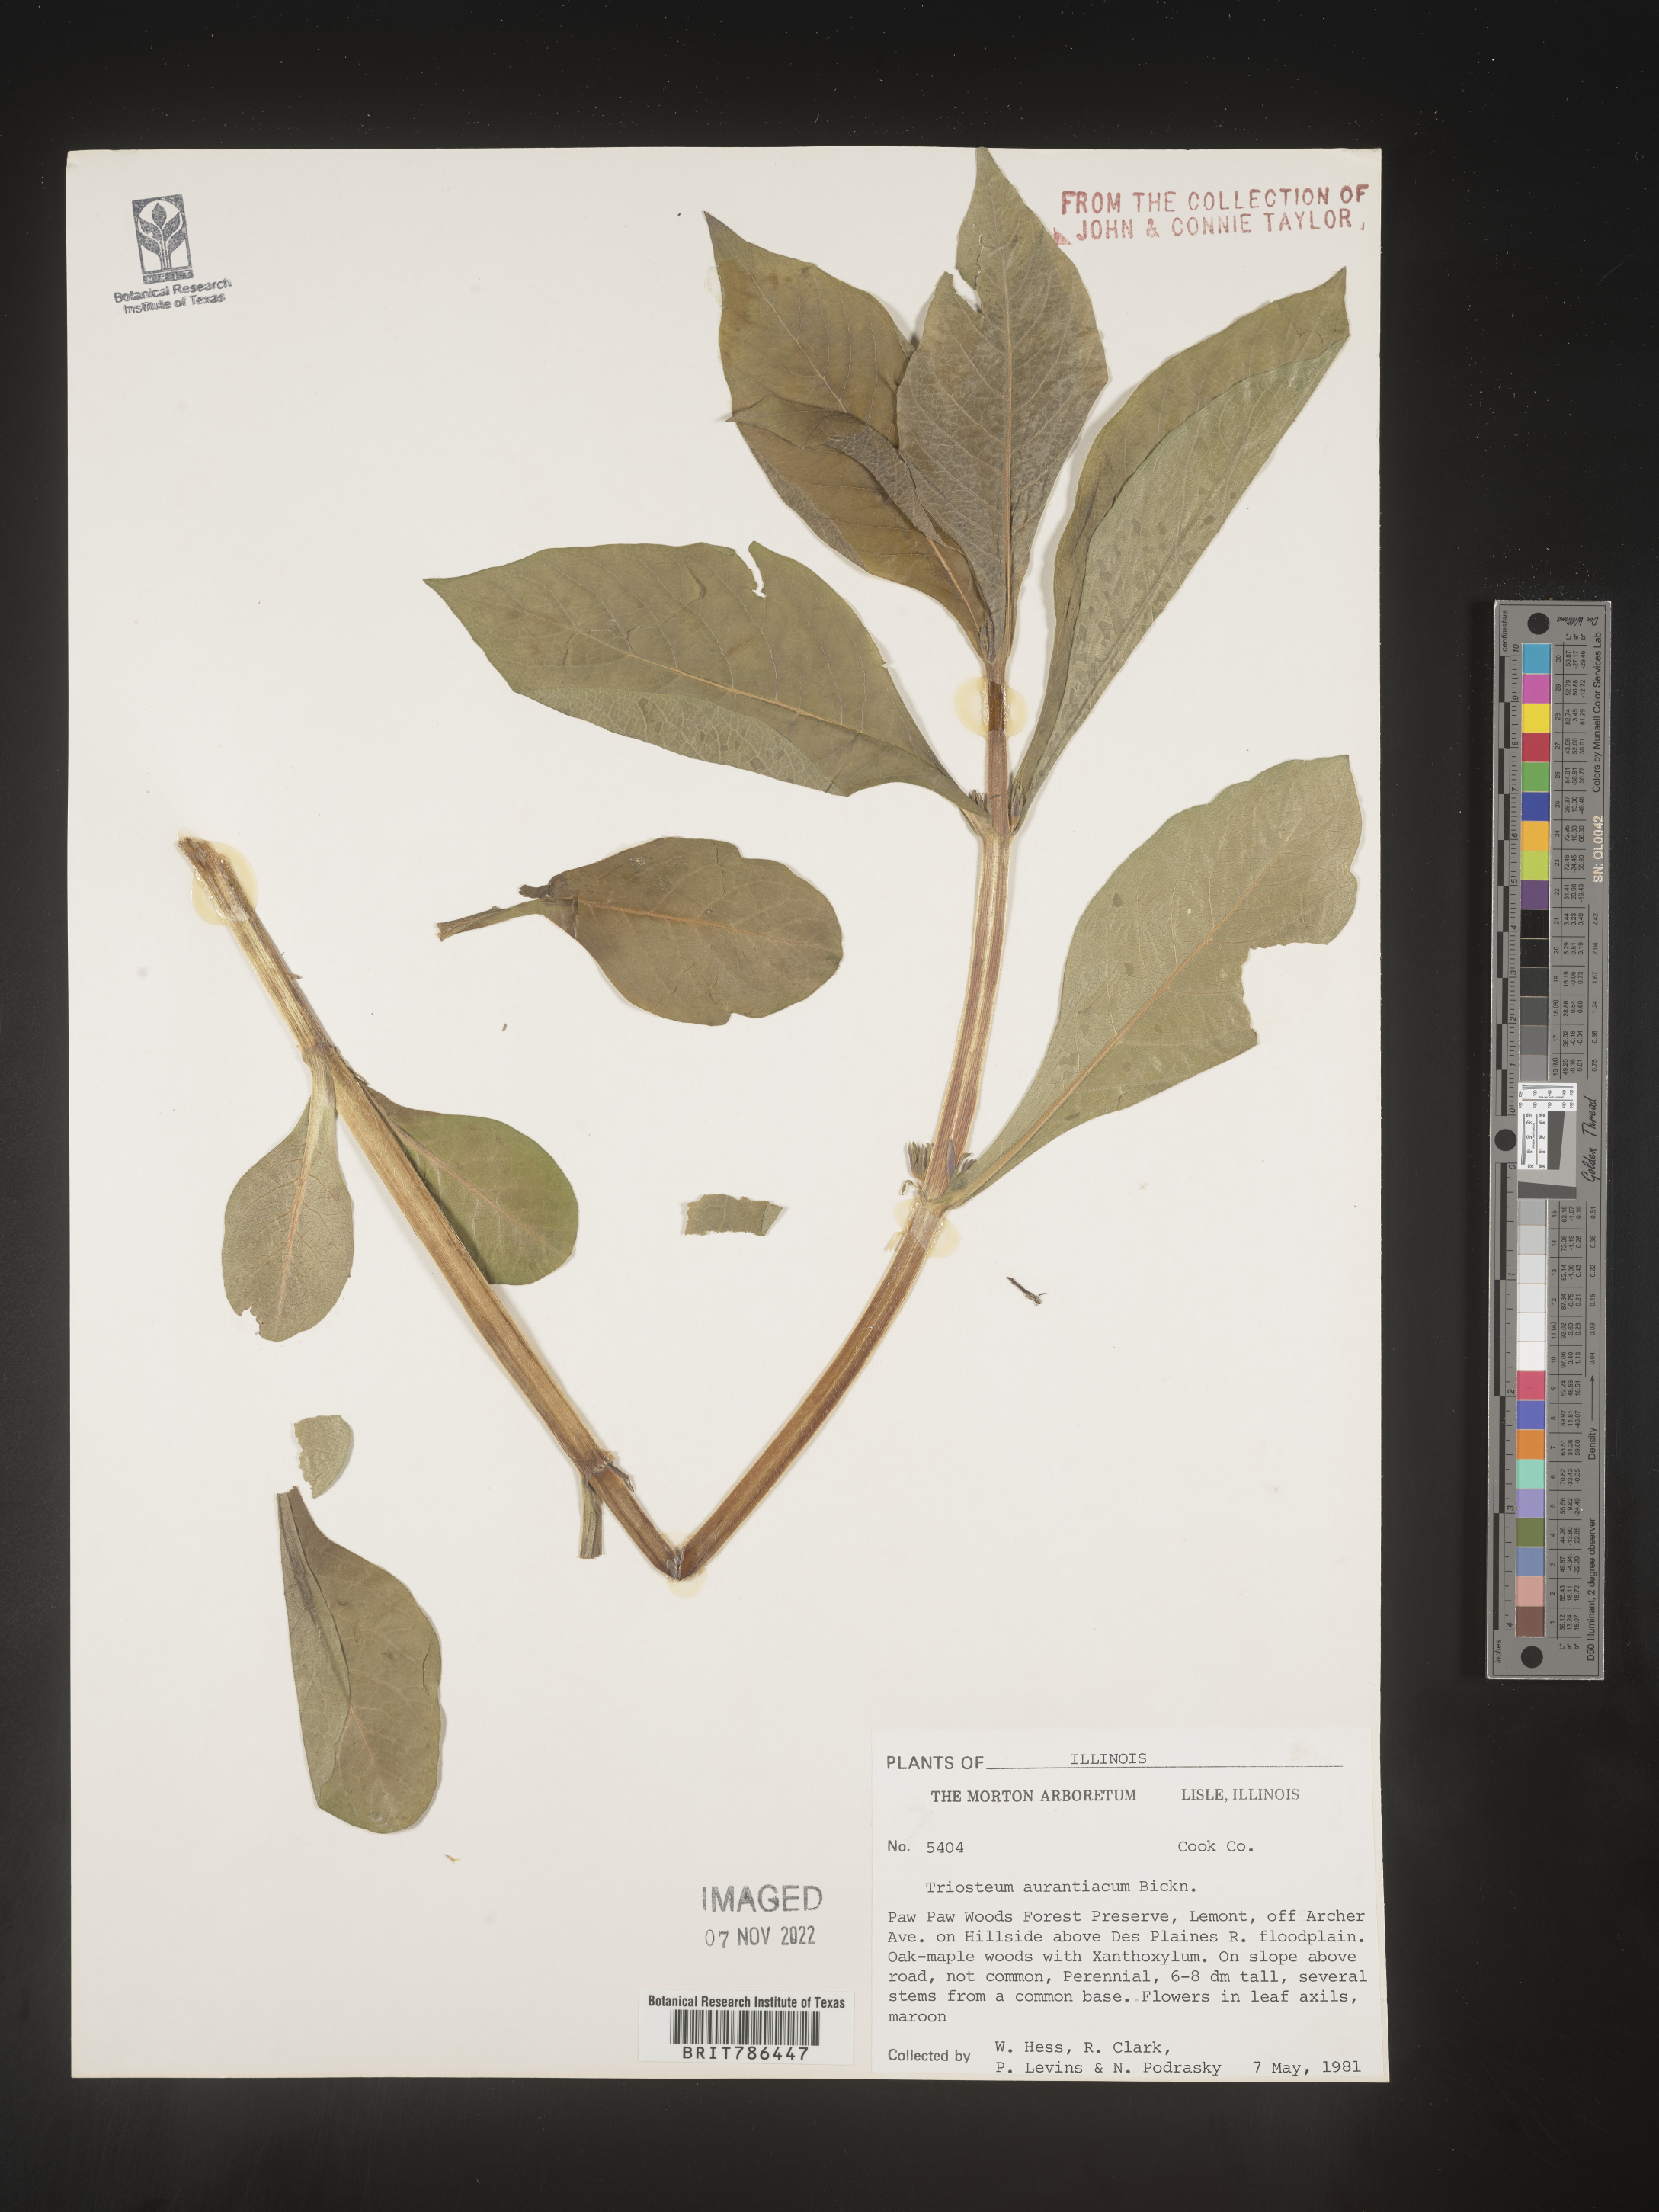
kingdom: Plantae
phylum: Tracheophyta
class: Magnoliopsida
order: Dipsacales
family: Caprifoliaceae
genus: Triosteum
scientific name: Triosteum aurantiacum
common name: Coffee tinker's-weed
